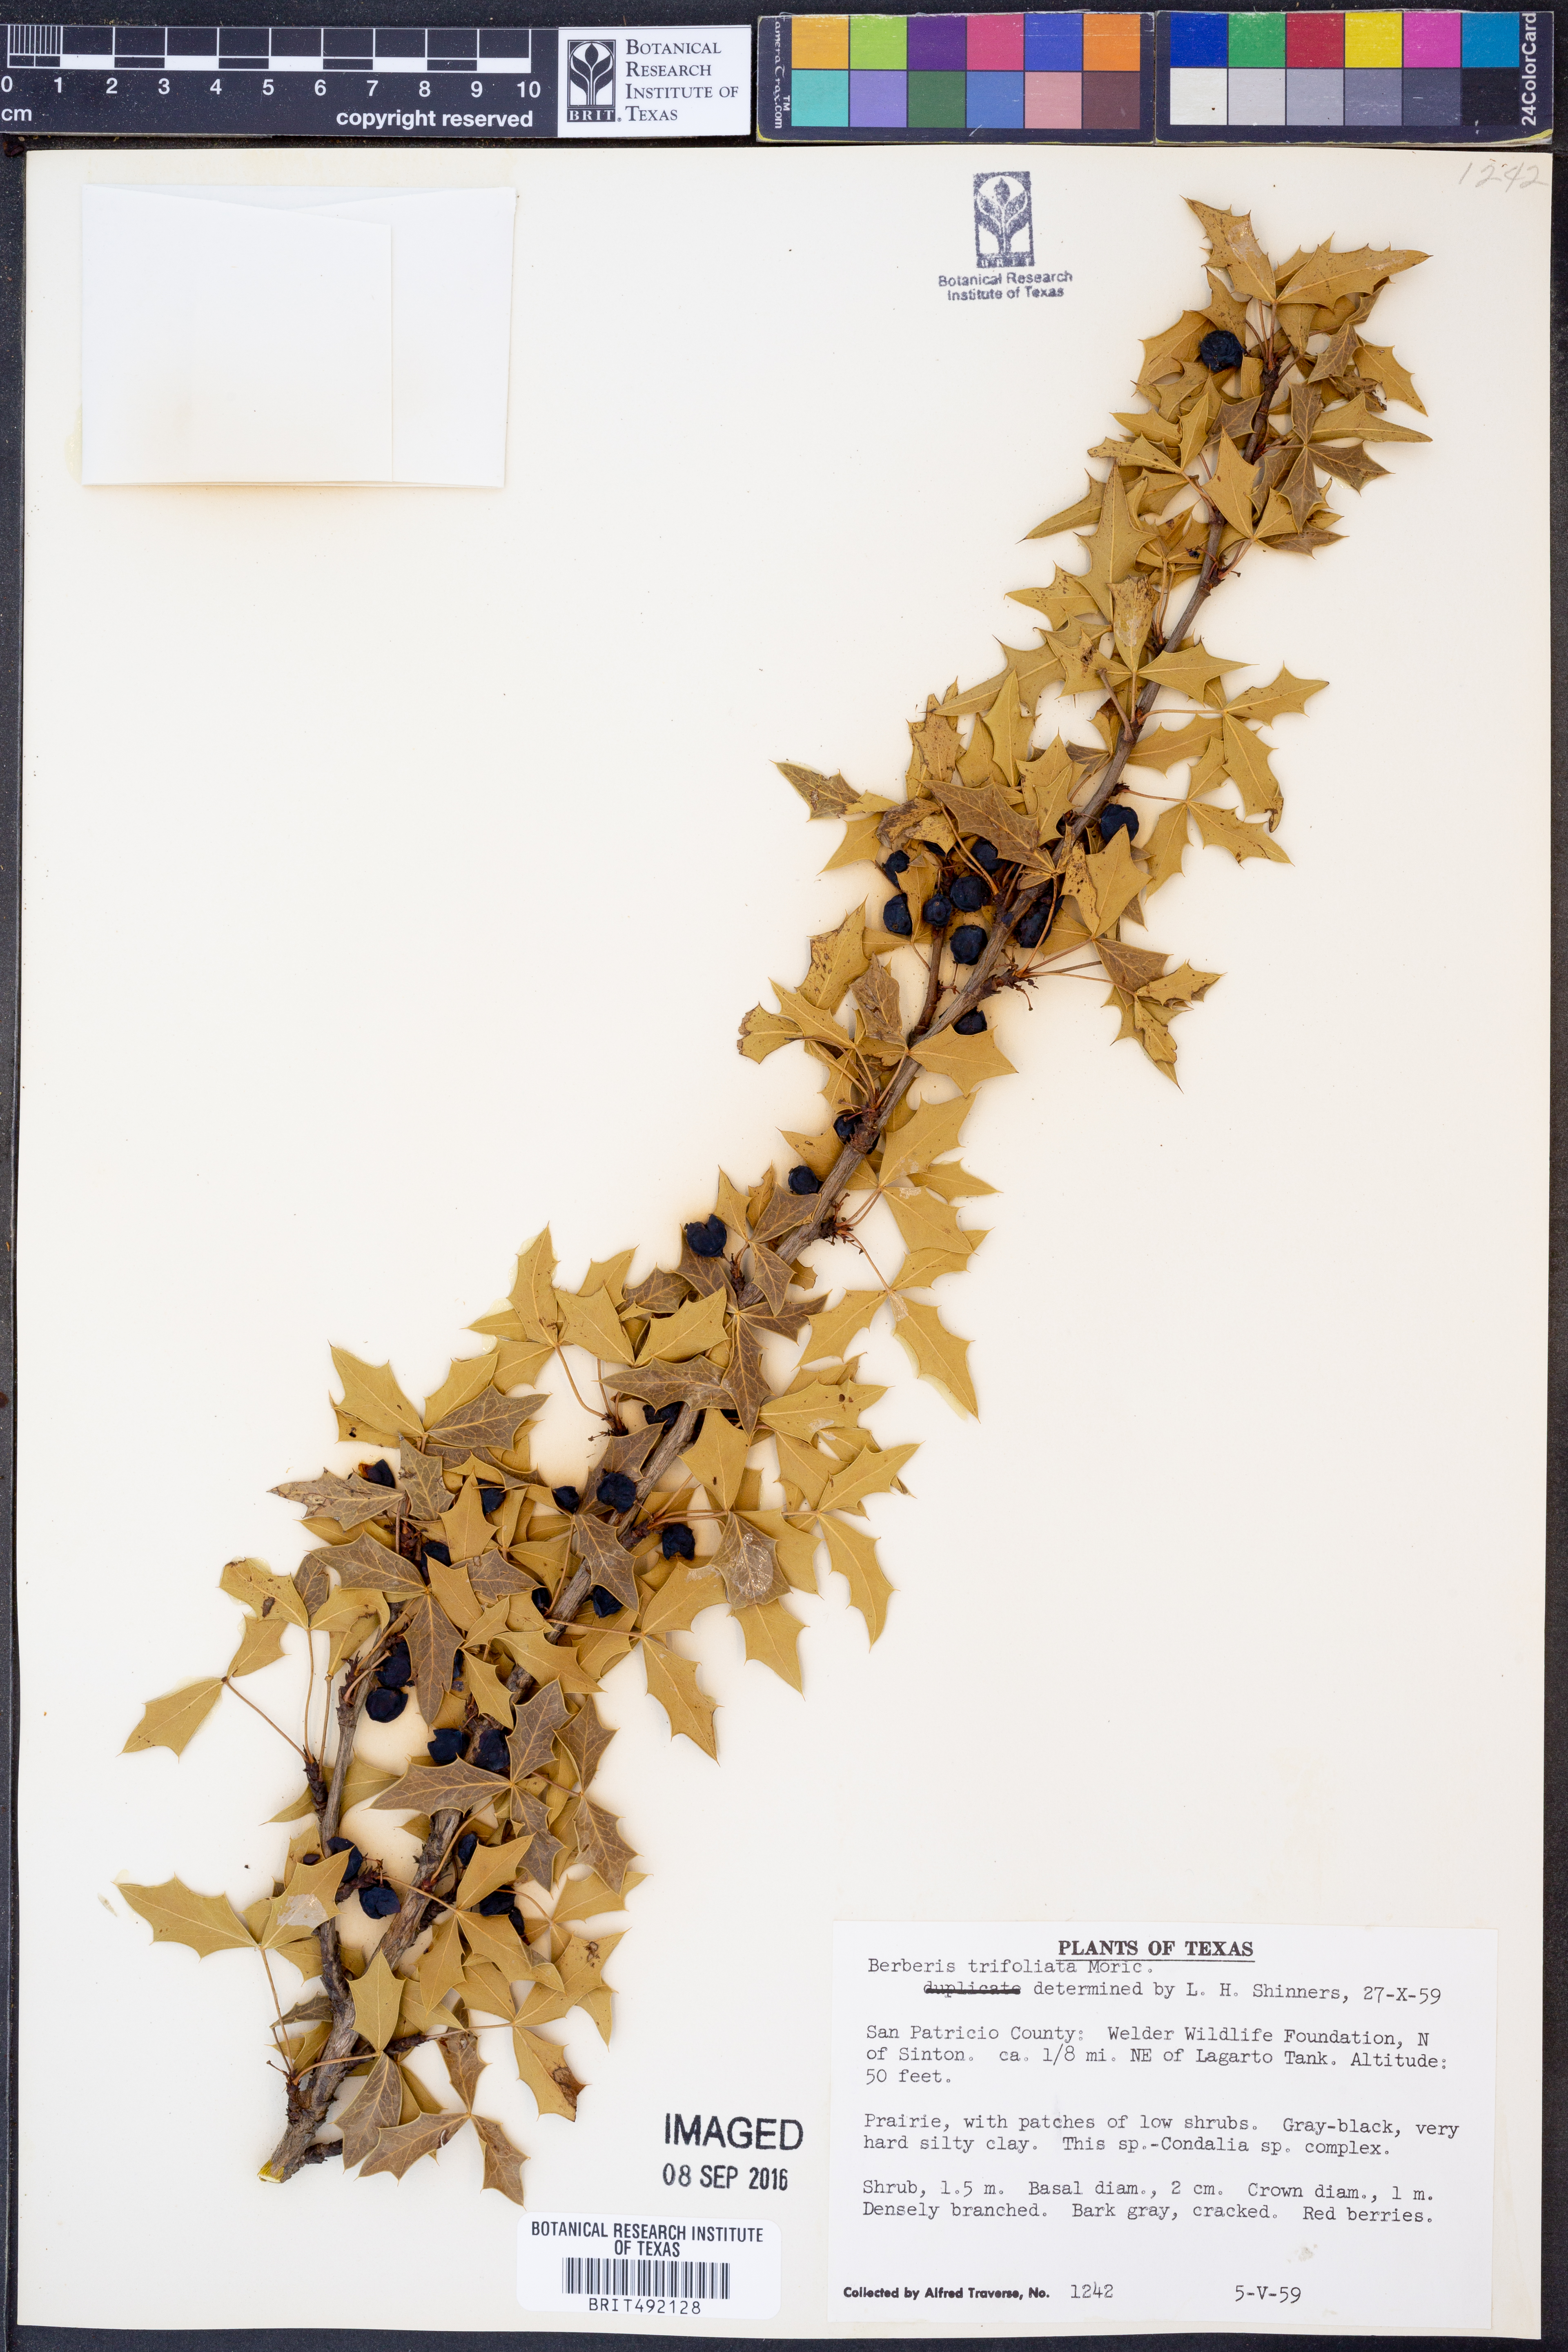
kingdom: Plantae
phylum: Tracheophyta
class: Magnoliopsida
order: Ranunculales
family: Berberidaceae
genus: Alloberberis
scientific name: Alloberberis fremontii
